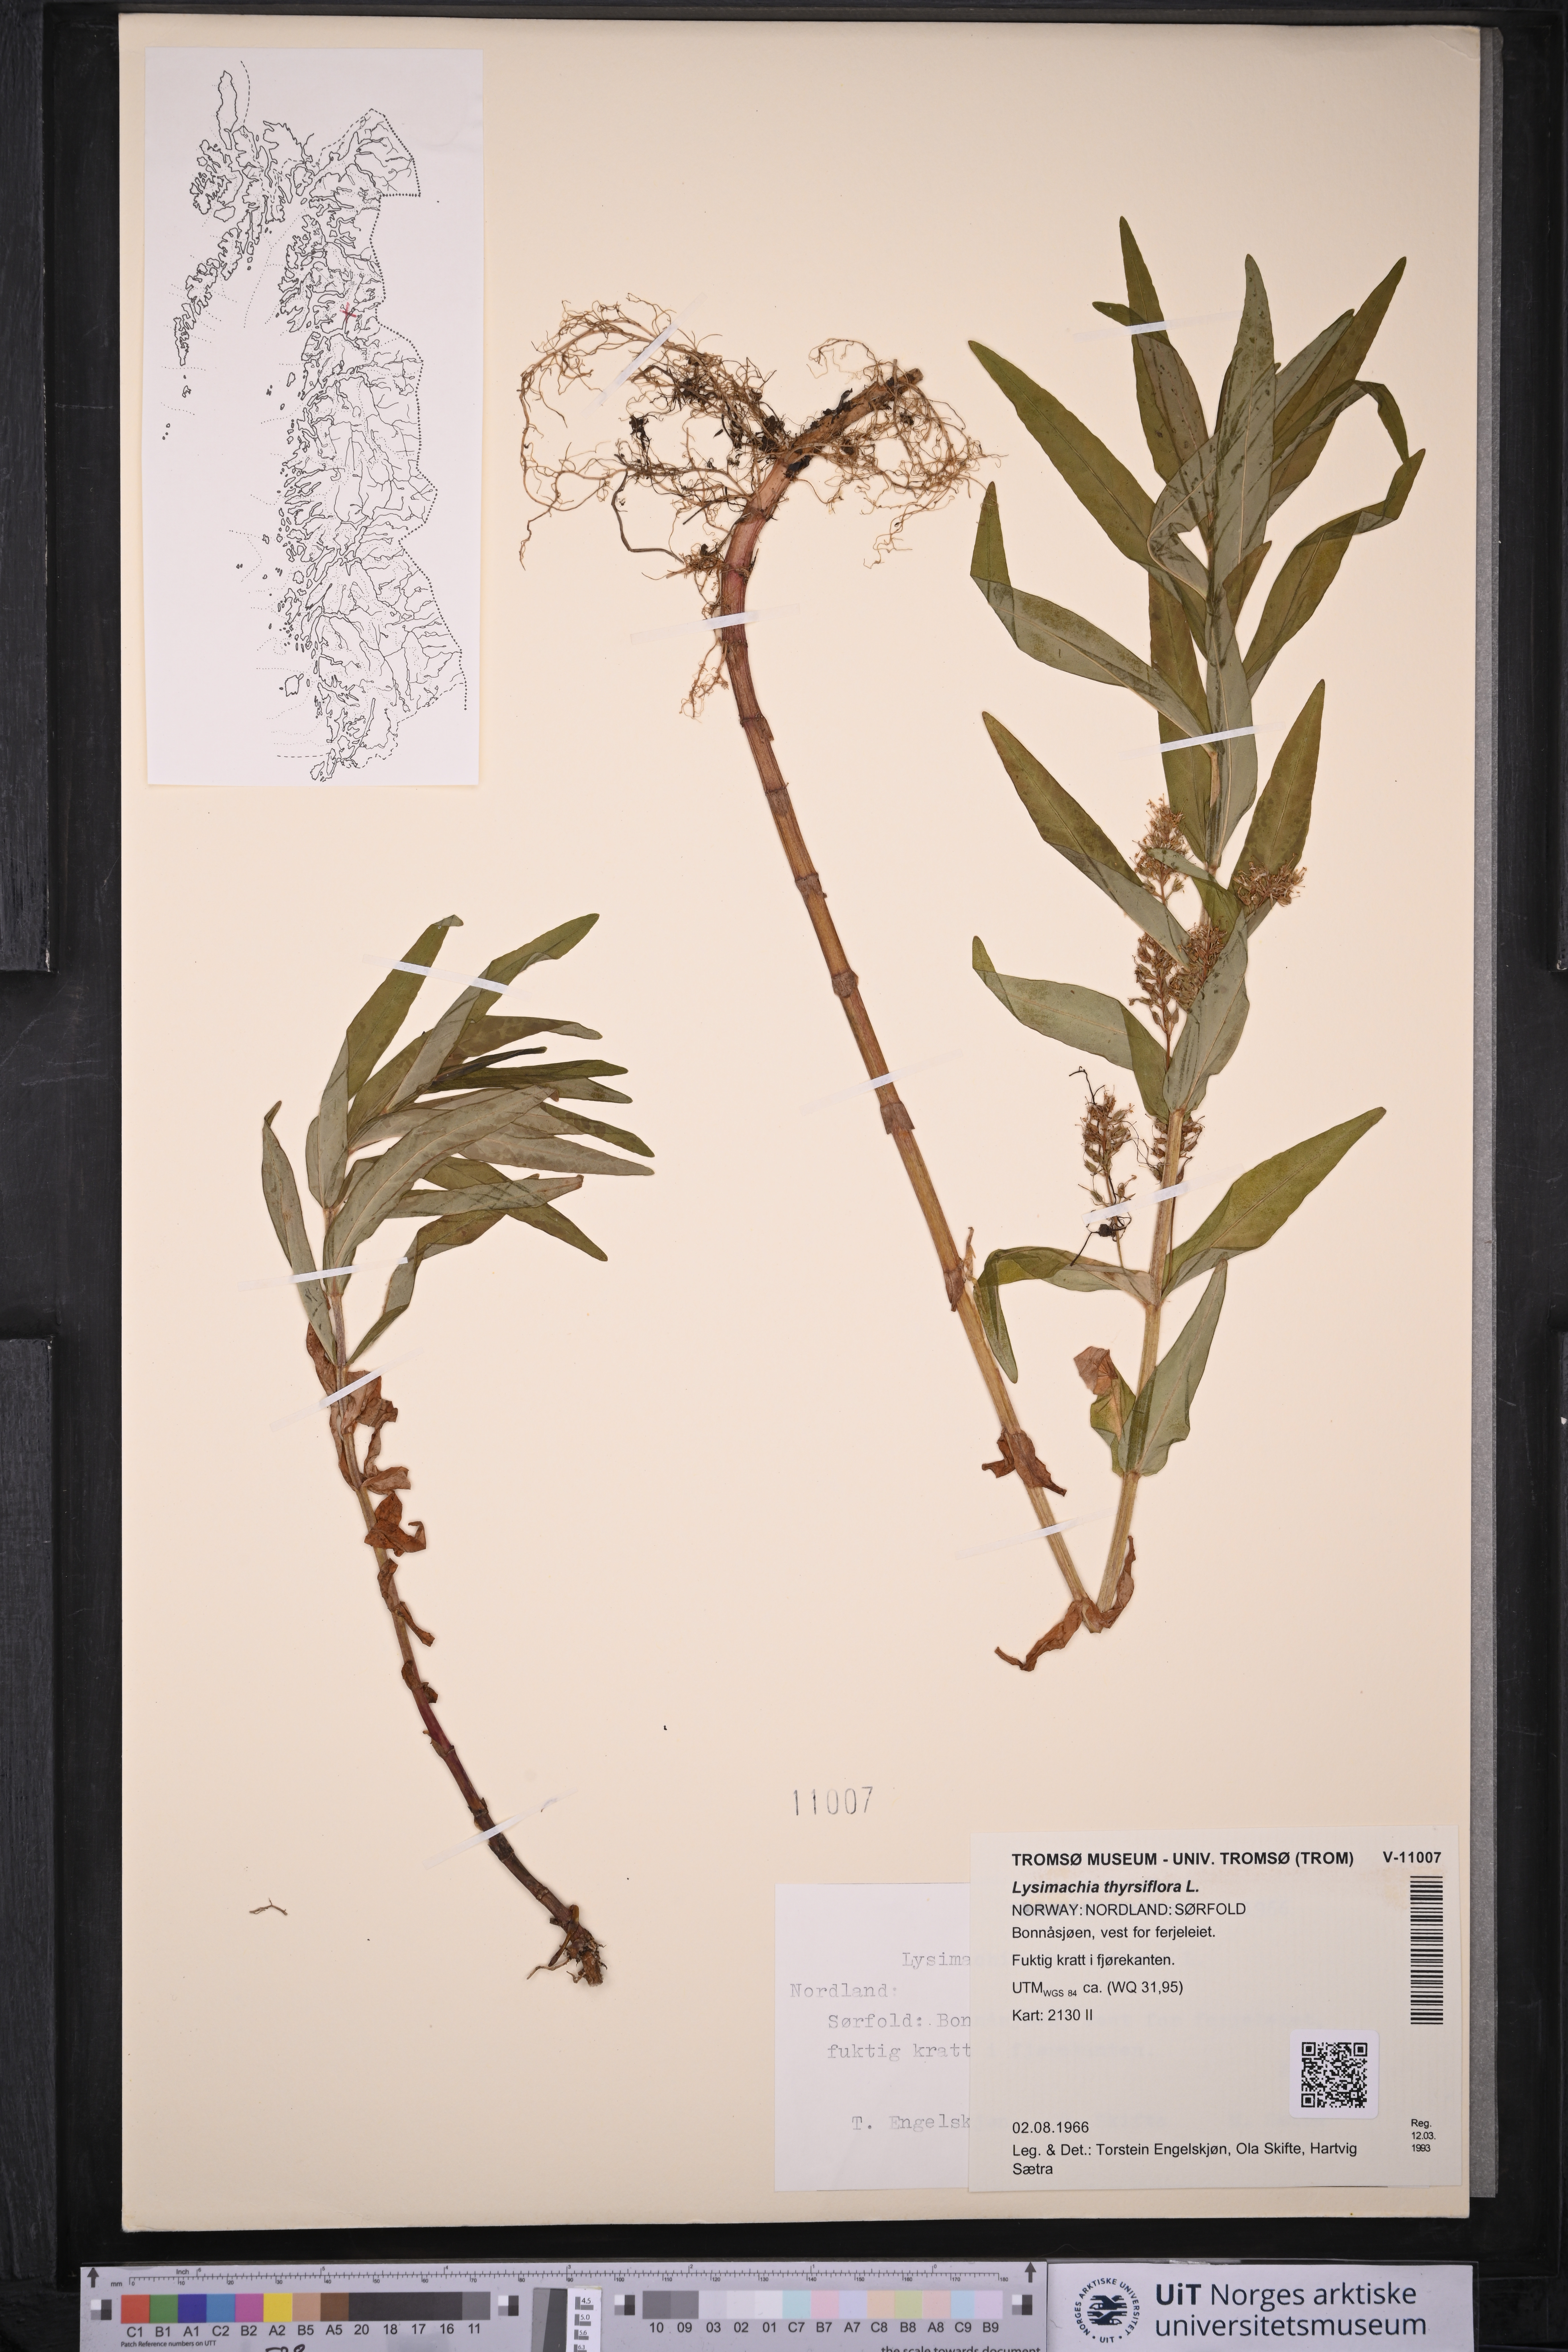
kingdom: Plantae
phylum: Tracheophyta
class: Magnoliopsida
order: Ericales
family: Primulaceae
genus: Lysimachia
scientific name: Lysimachia thyrsiflora
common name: Tufted loosestrife
